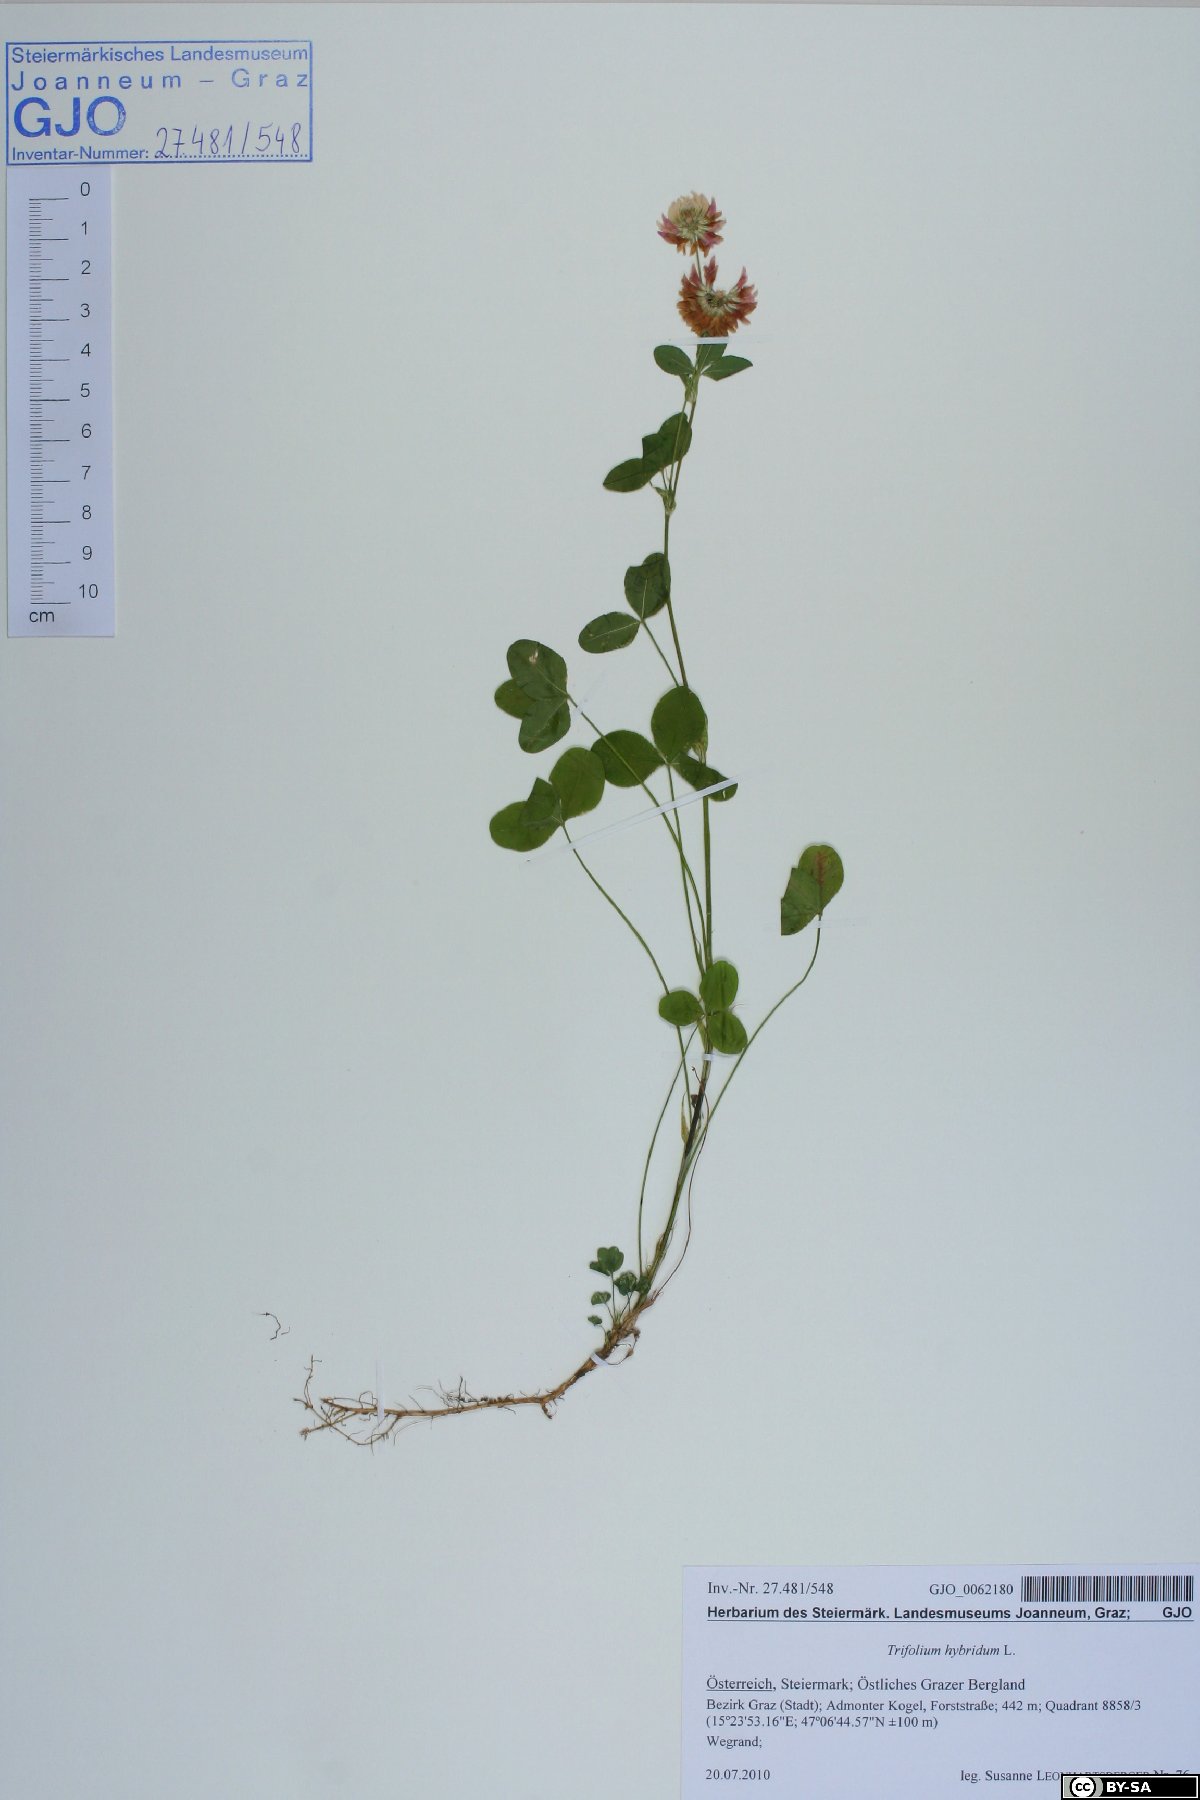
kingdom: Plantae
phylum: Tracheophyta
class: Magnoliopsida
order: Fabales
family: Fabaceae
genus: Trifolium
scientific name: Trifolium hybridum
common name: Alsike clover
